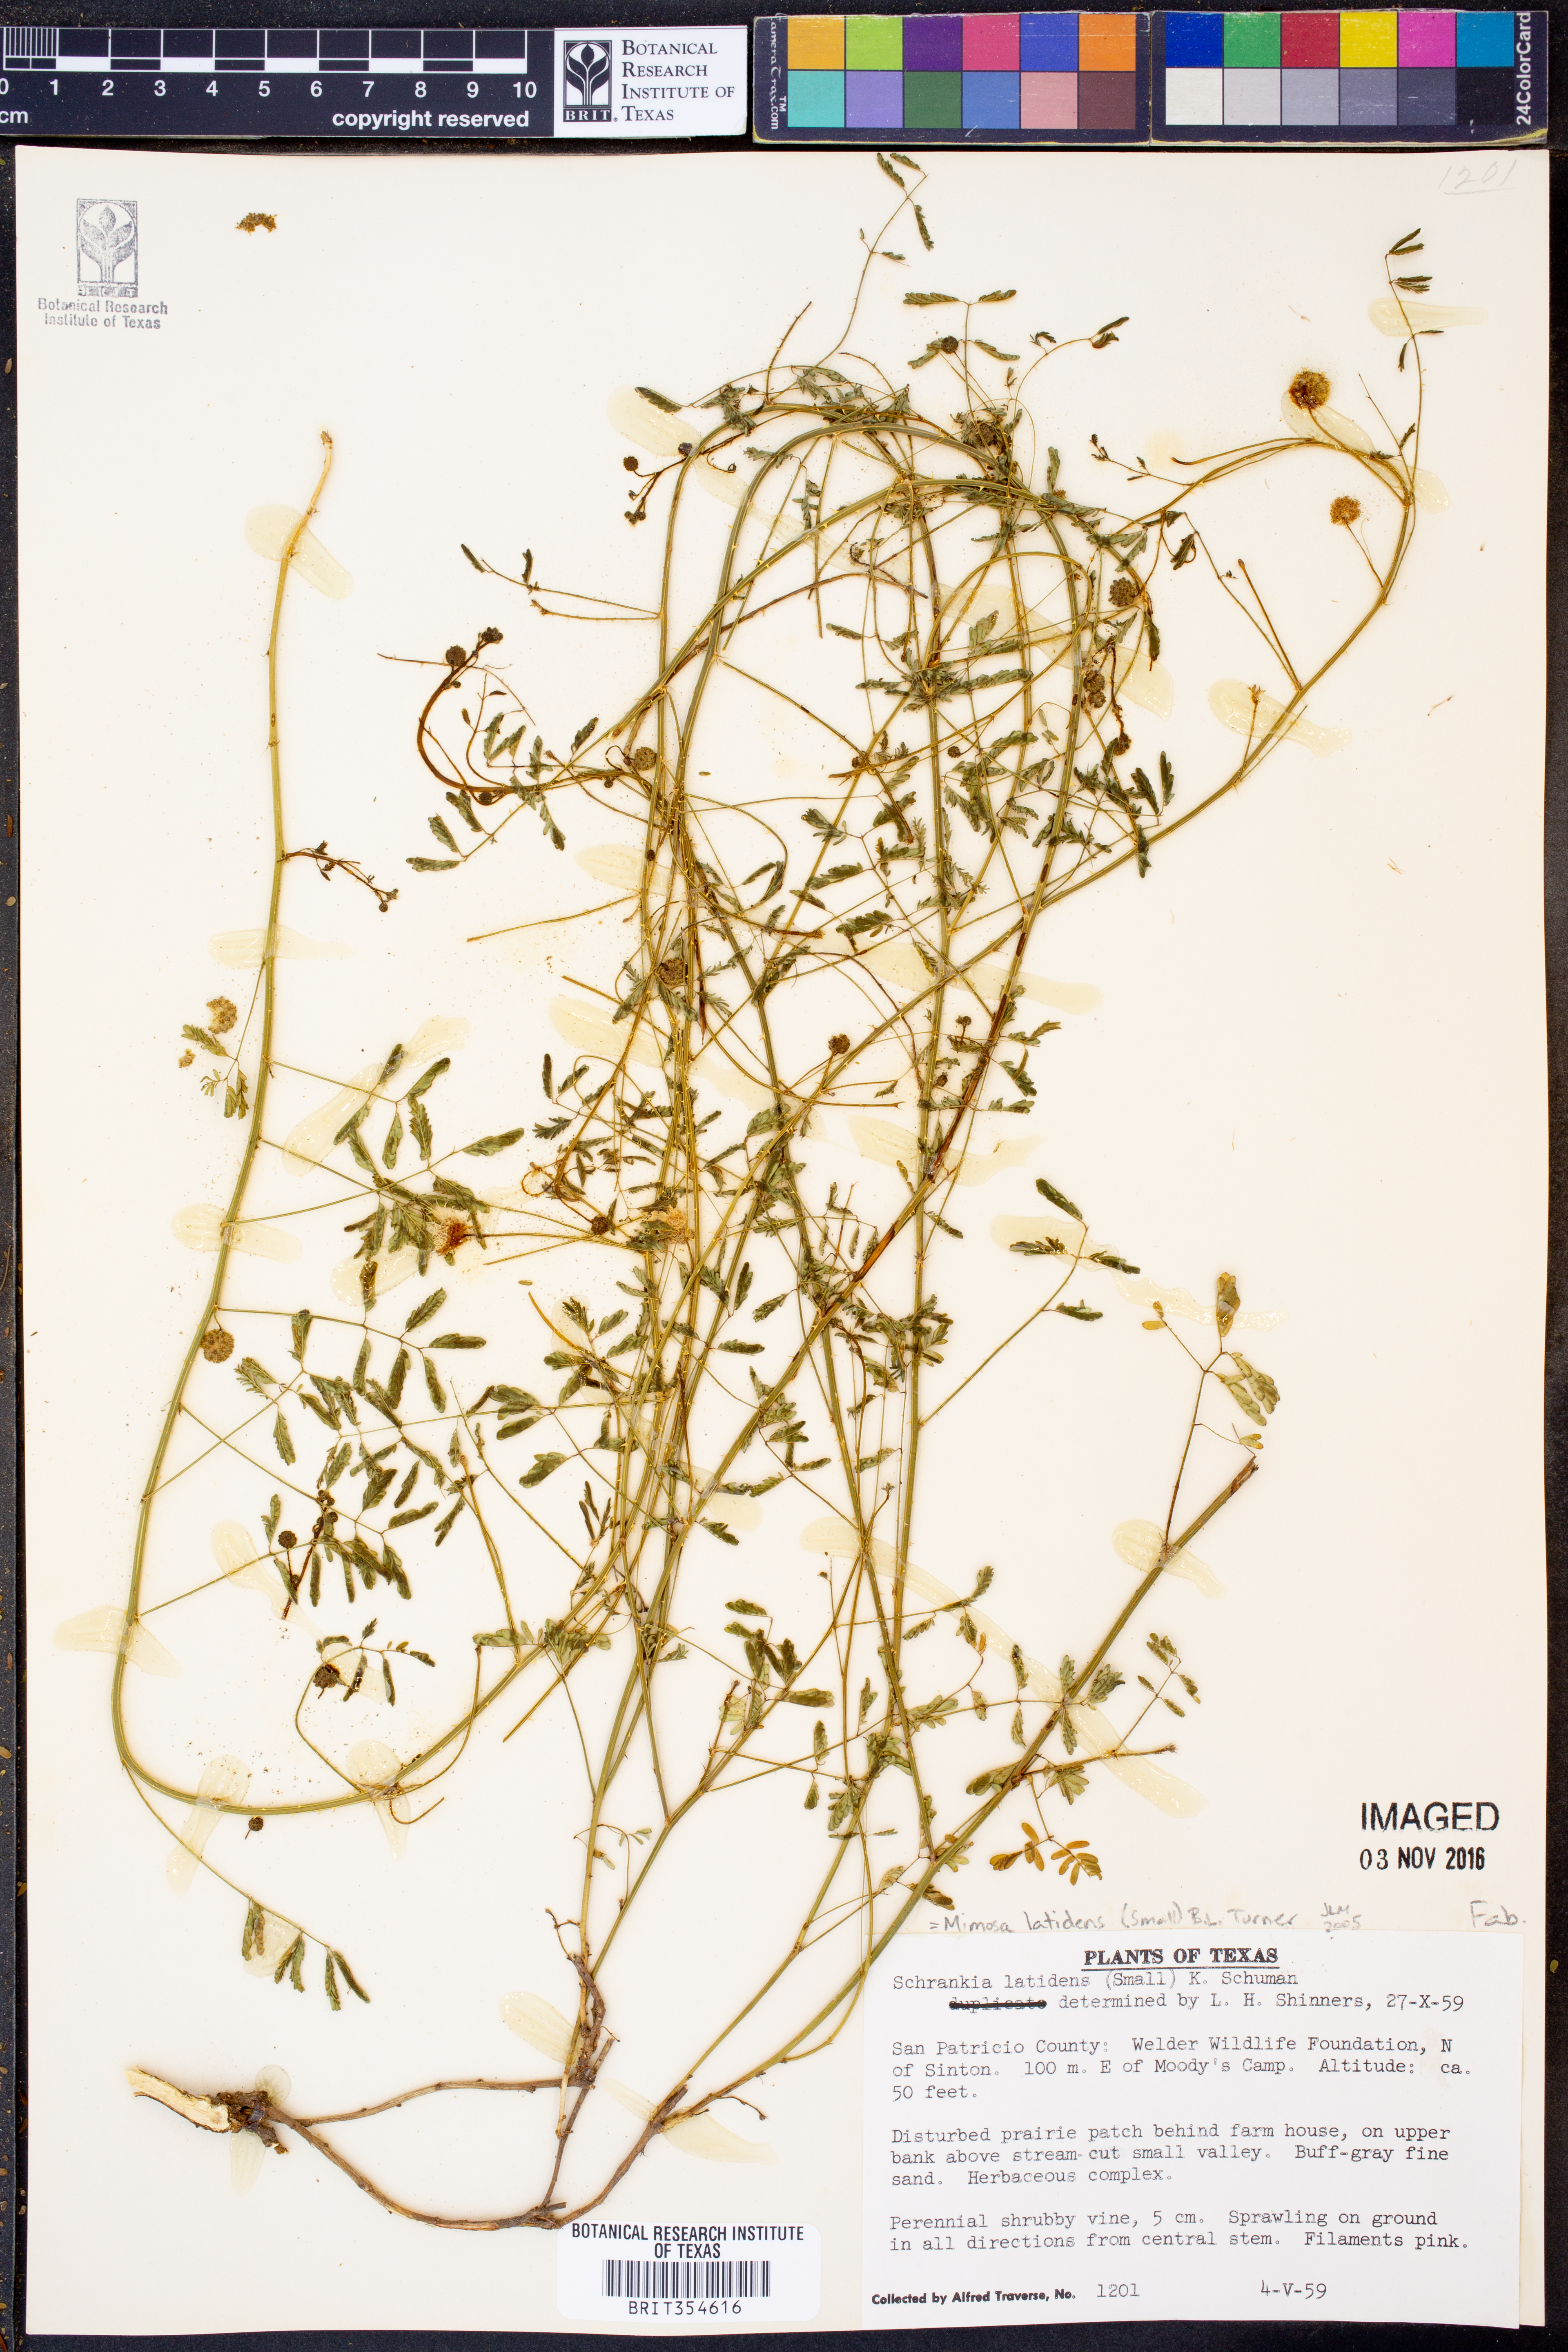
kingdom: Plantae
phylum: Tracheophyta
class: Magnoliopsida
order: Fabales
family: Fabaceae
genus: Mimosa
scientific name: Mimosa latidens
